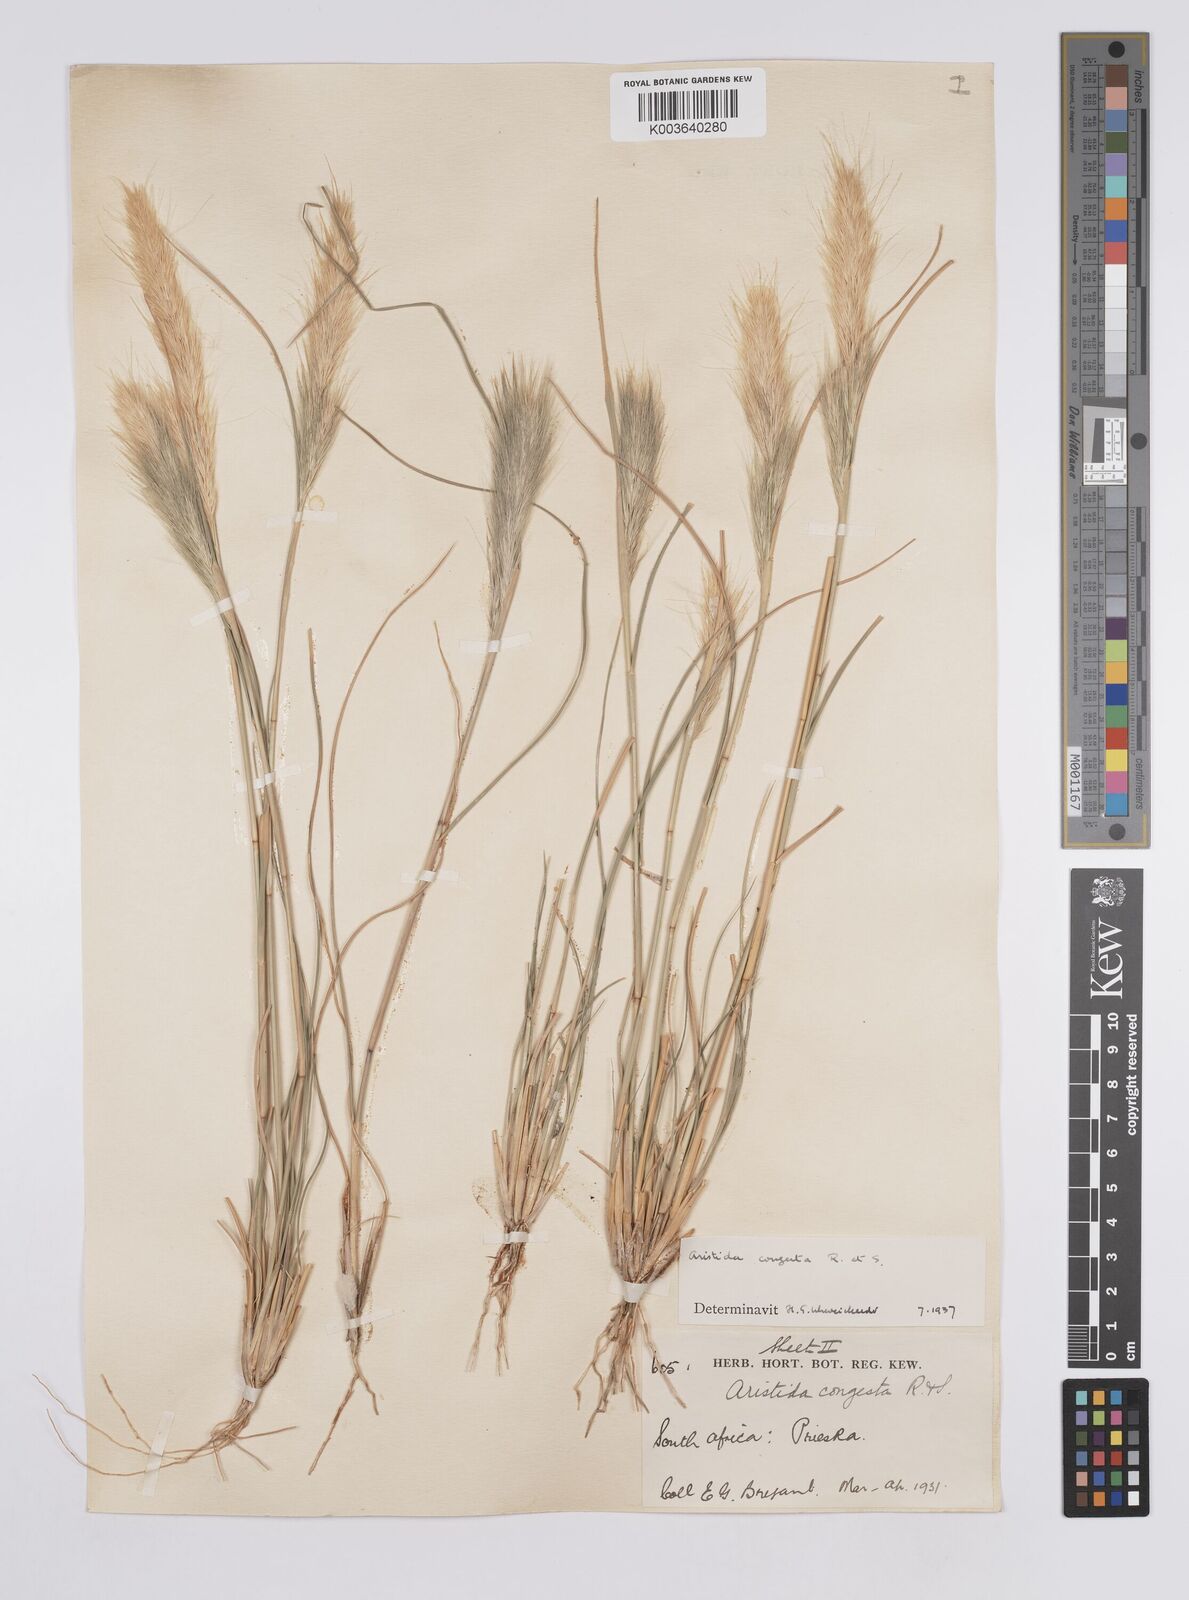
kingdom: Plantae
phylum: Tracheophyta
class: Liliopsida
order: Poales
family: Poaceae
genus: Aristida
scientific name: Aristida congesta
